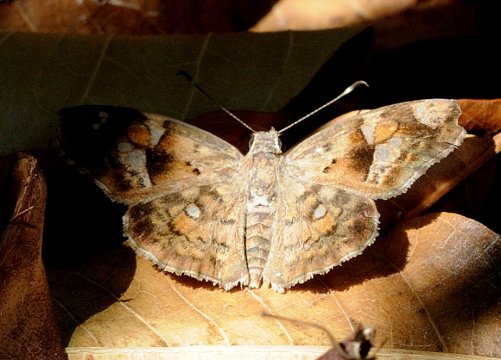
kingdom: Animalia
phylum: Arthropoda
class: Insecta
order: Lepidoptera
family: Hesperiidae
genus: Sarangesa
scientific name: Sarangesa motozi
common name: Forest Elfin
